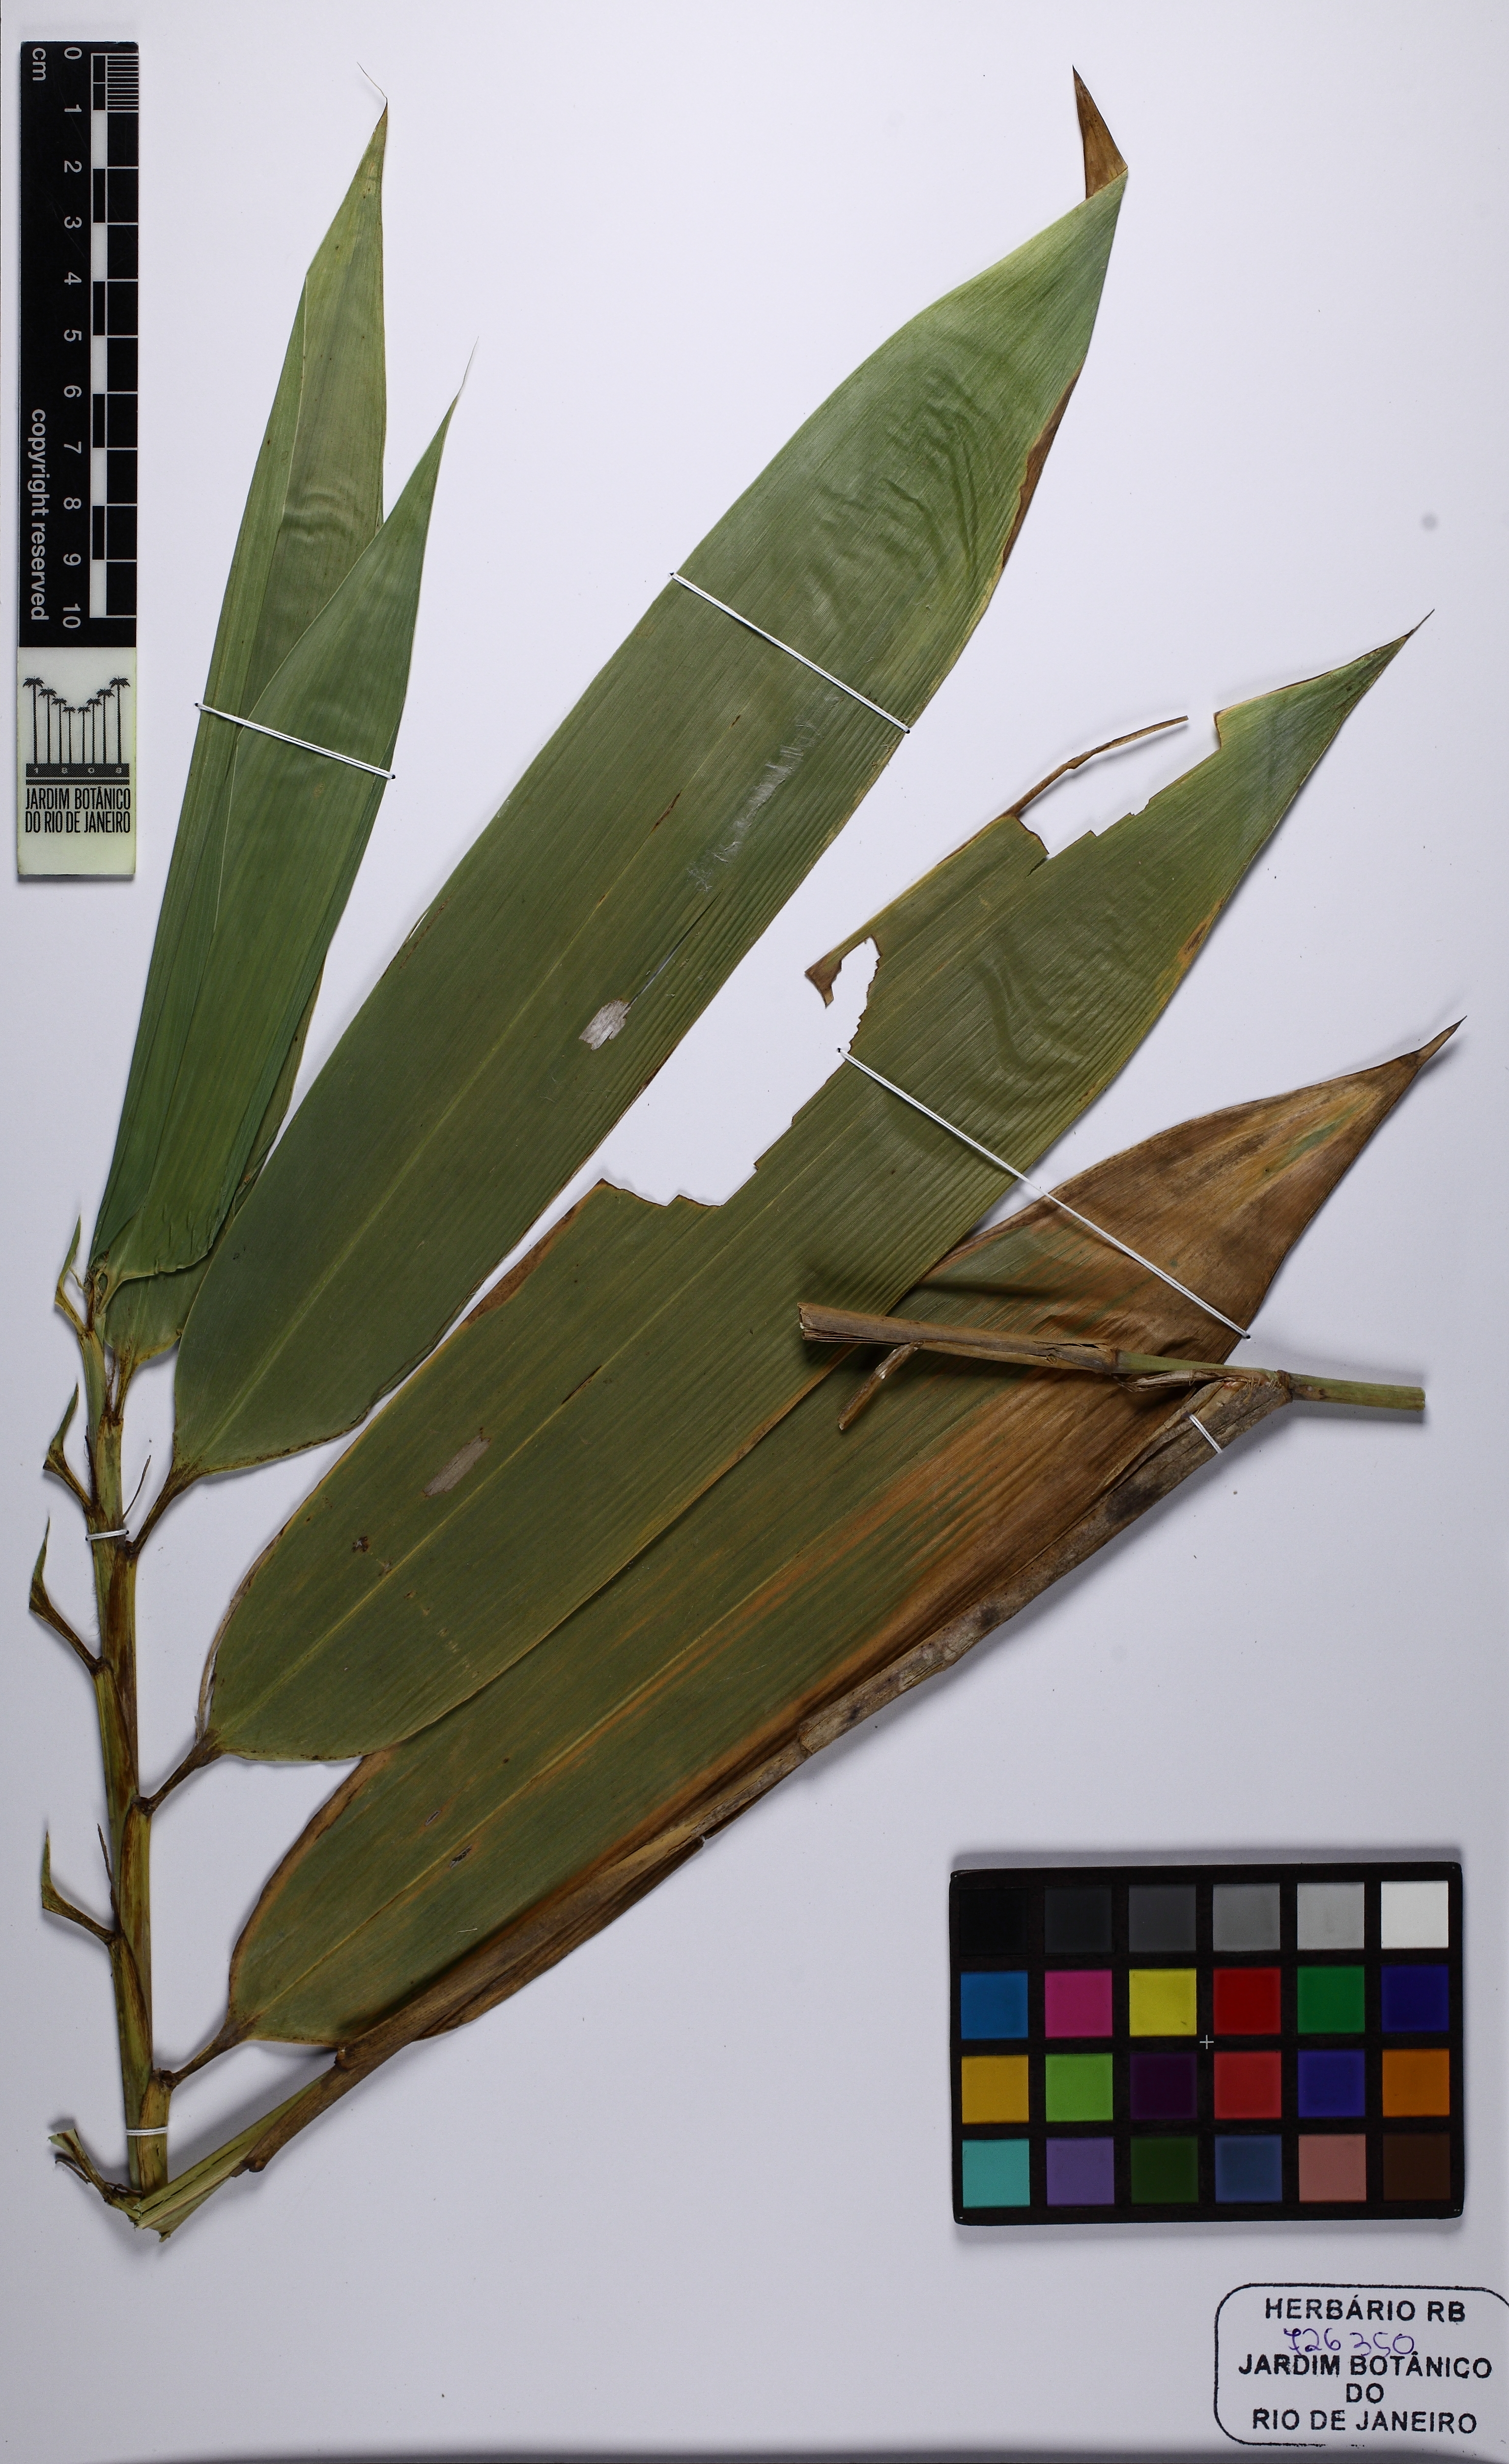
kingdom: Plantae
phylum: Tracheophyta
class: Liliopsida
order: Poales
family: Poaceae
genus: Guadua
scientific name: Guadua
